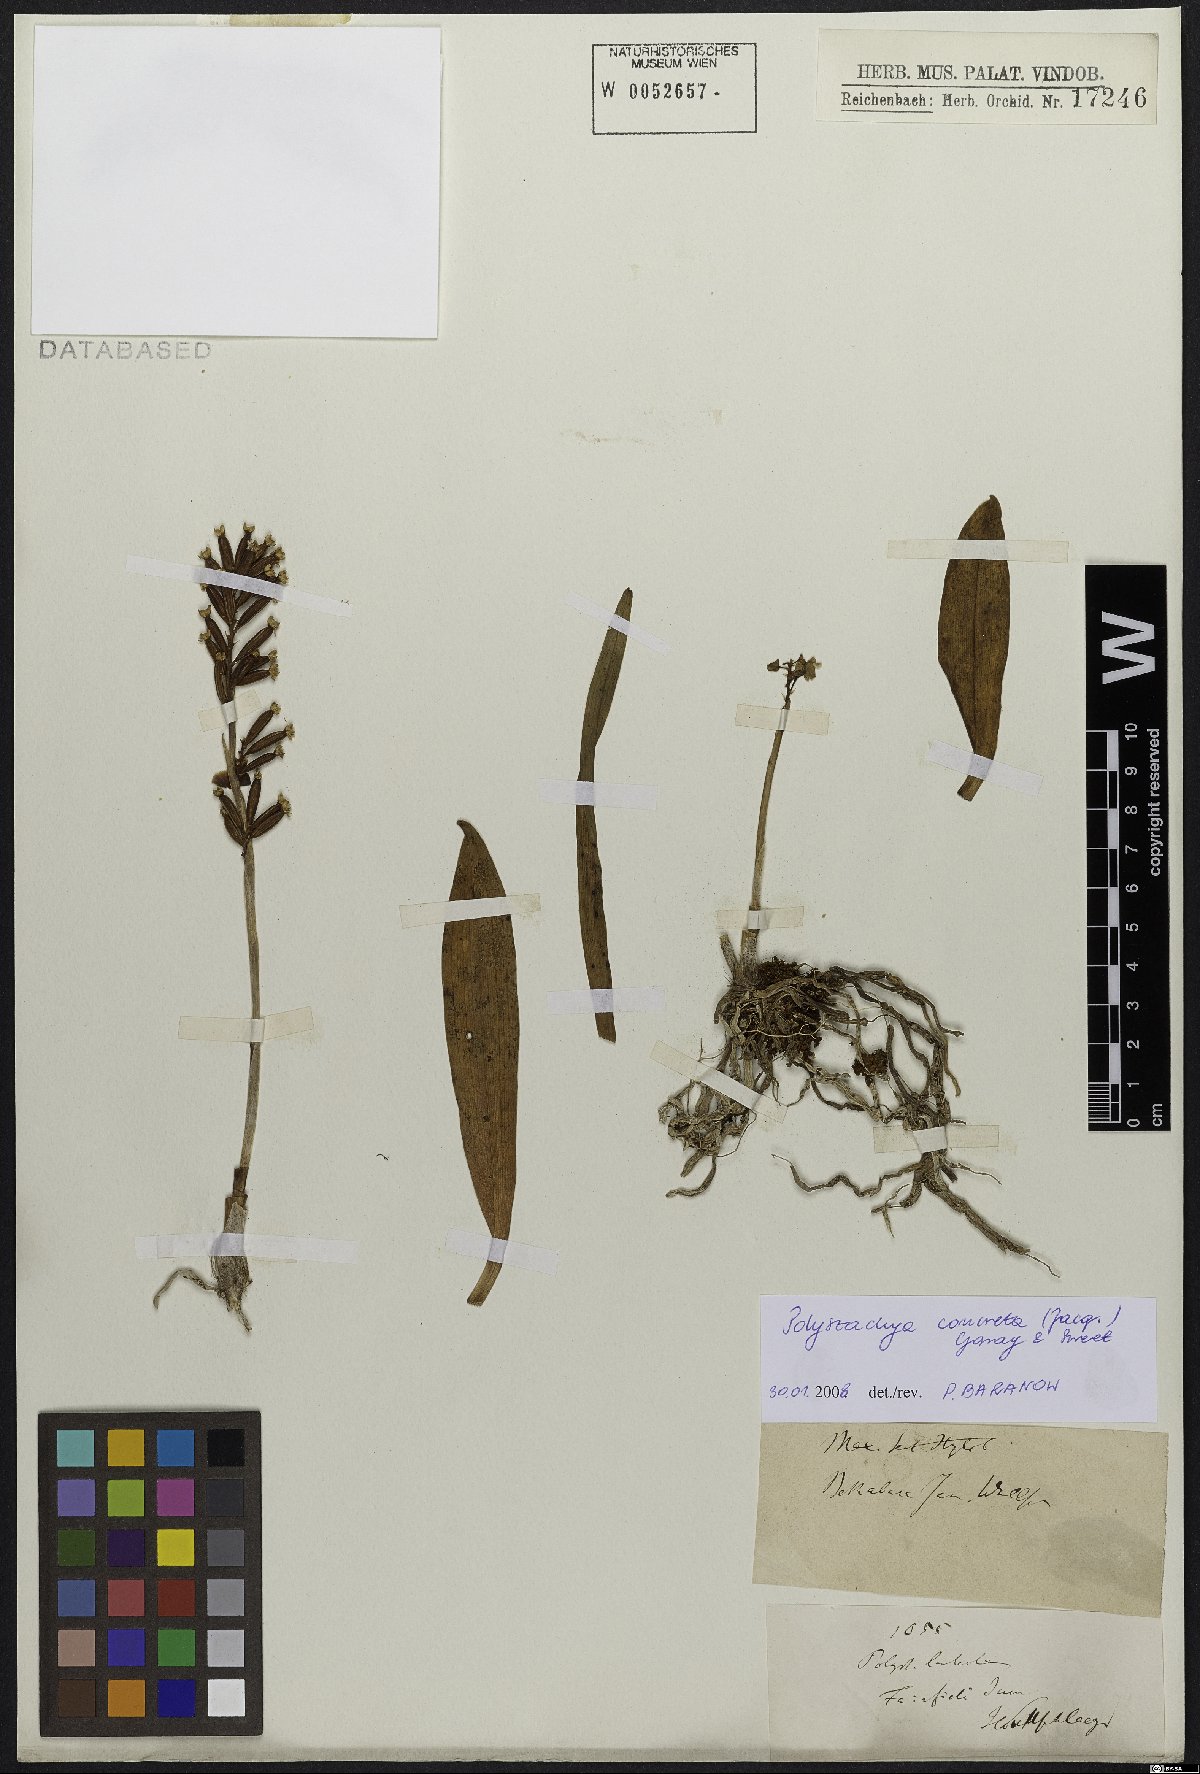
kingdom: Plantae
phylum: Tracheophyta
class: Liliopsida
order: Asparagales
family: Orchidaceae
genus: Polystachya
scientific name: Polystachya concreta
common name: Greater yellowspike orchid
